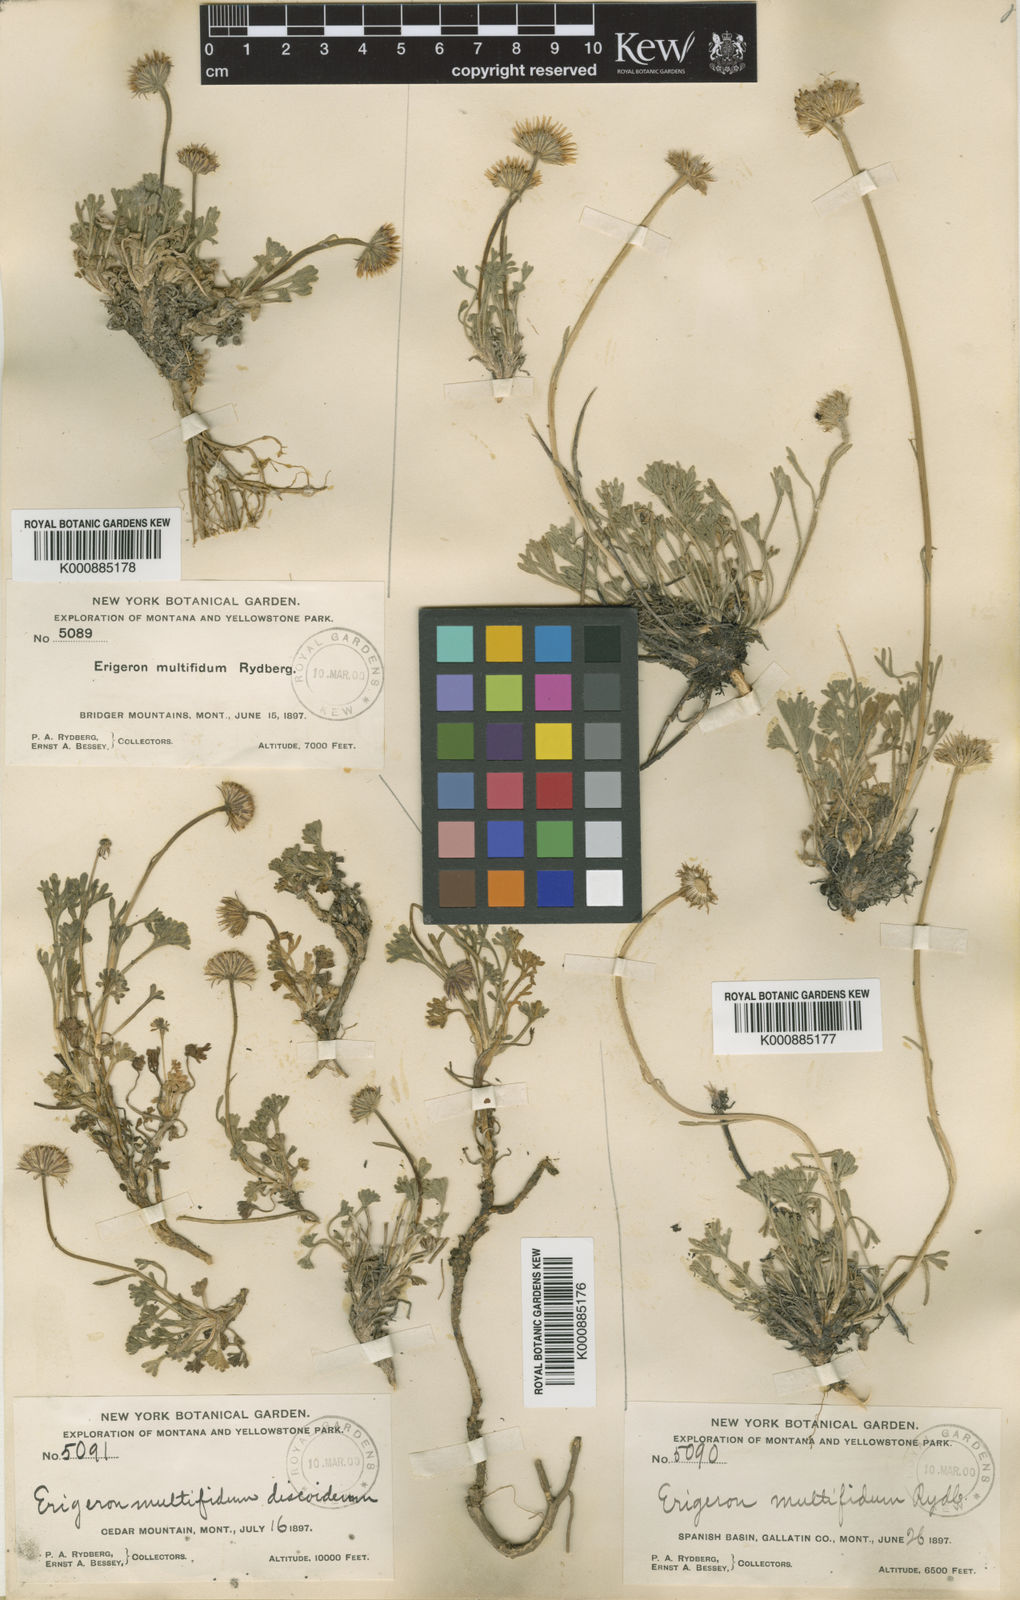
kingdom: Plantae
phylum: Tracheophyta
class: Magnoliopsida
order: Asterales
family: Asteraceae
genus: Erigeron
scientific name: Erigeron compositus
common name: Dwarf mountain fleabane
